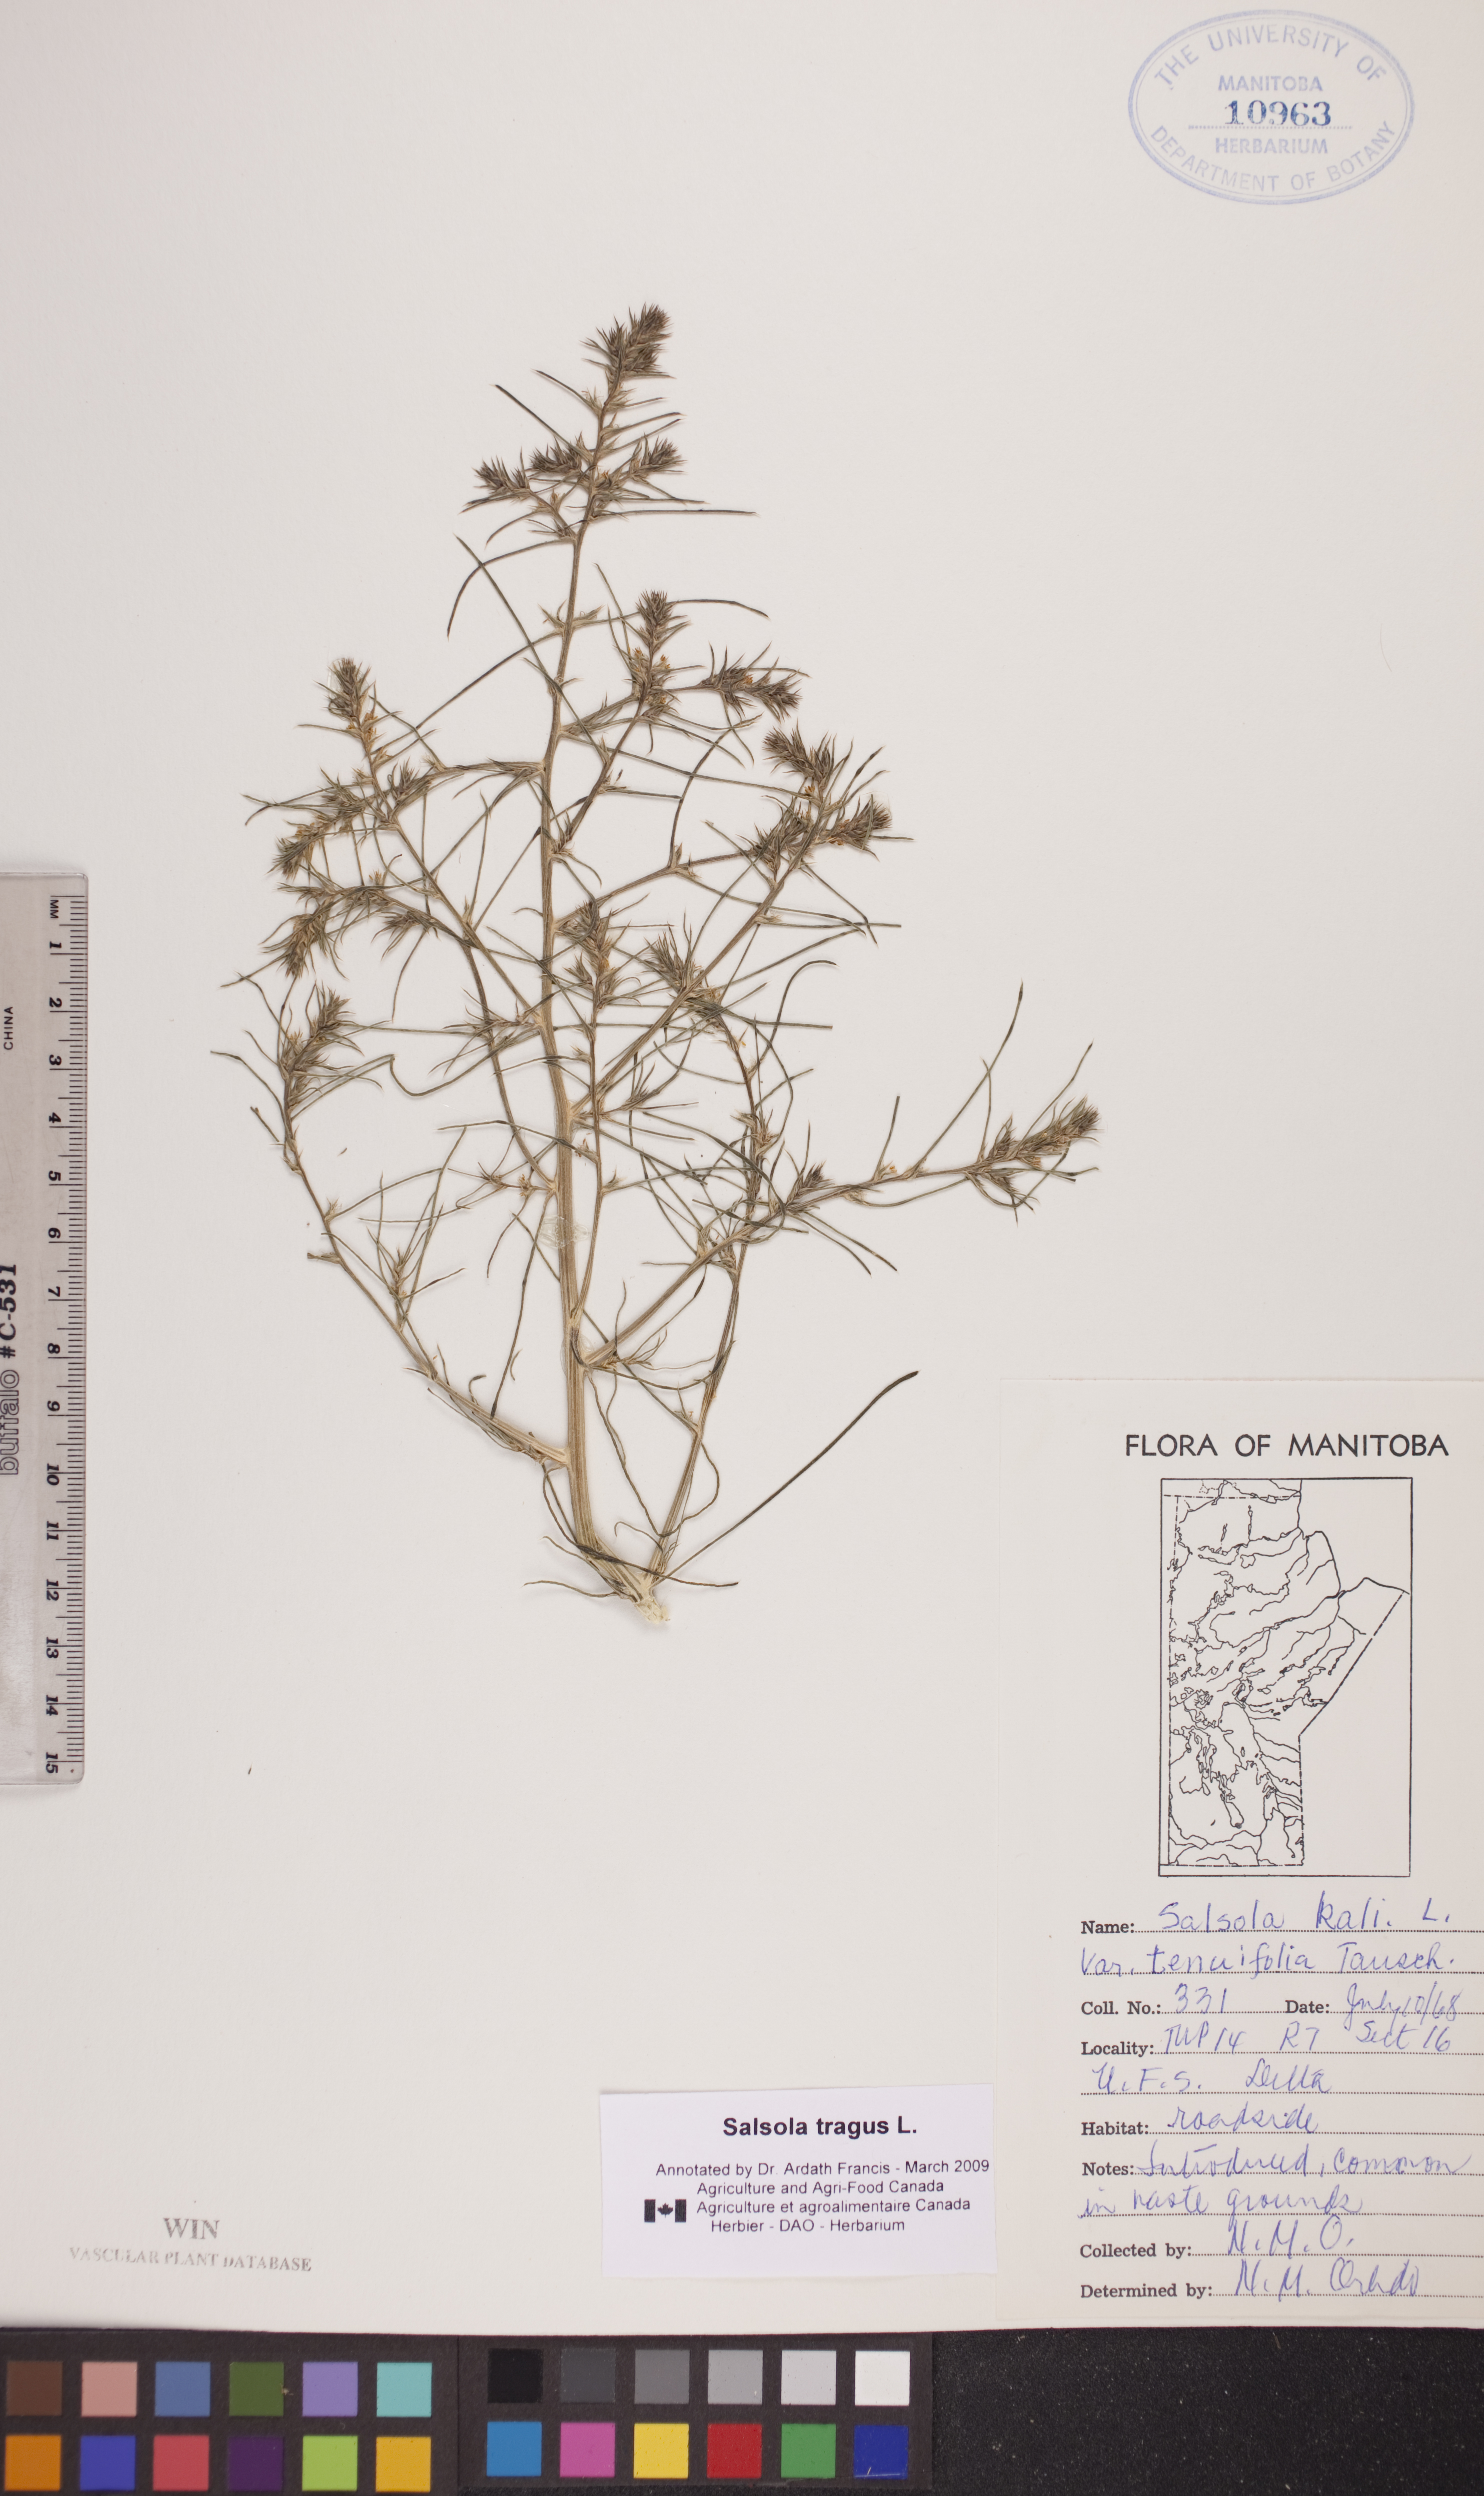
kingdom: Plantae
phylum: Tracheophyta
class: Magnoliopsida
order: Caryophyllales
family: Amaranthaceae
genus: Salsola
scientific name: Salsola tragus
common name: Prickly russian thistle
